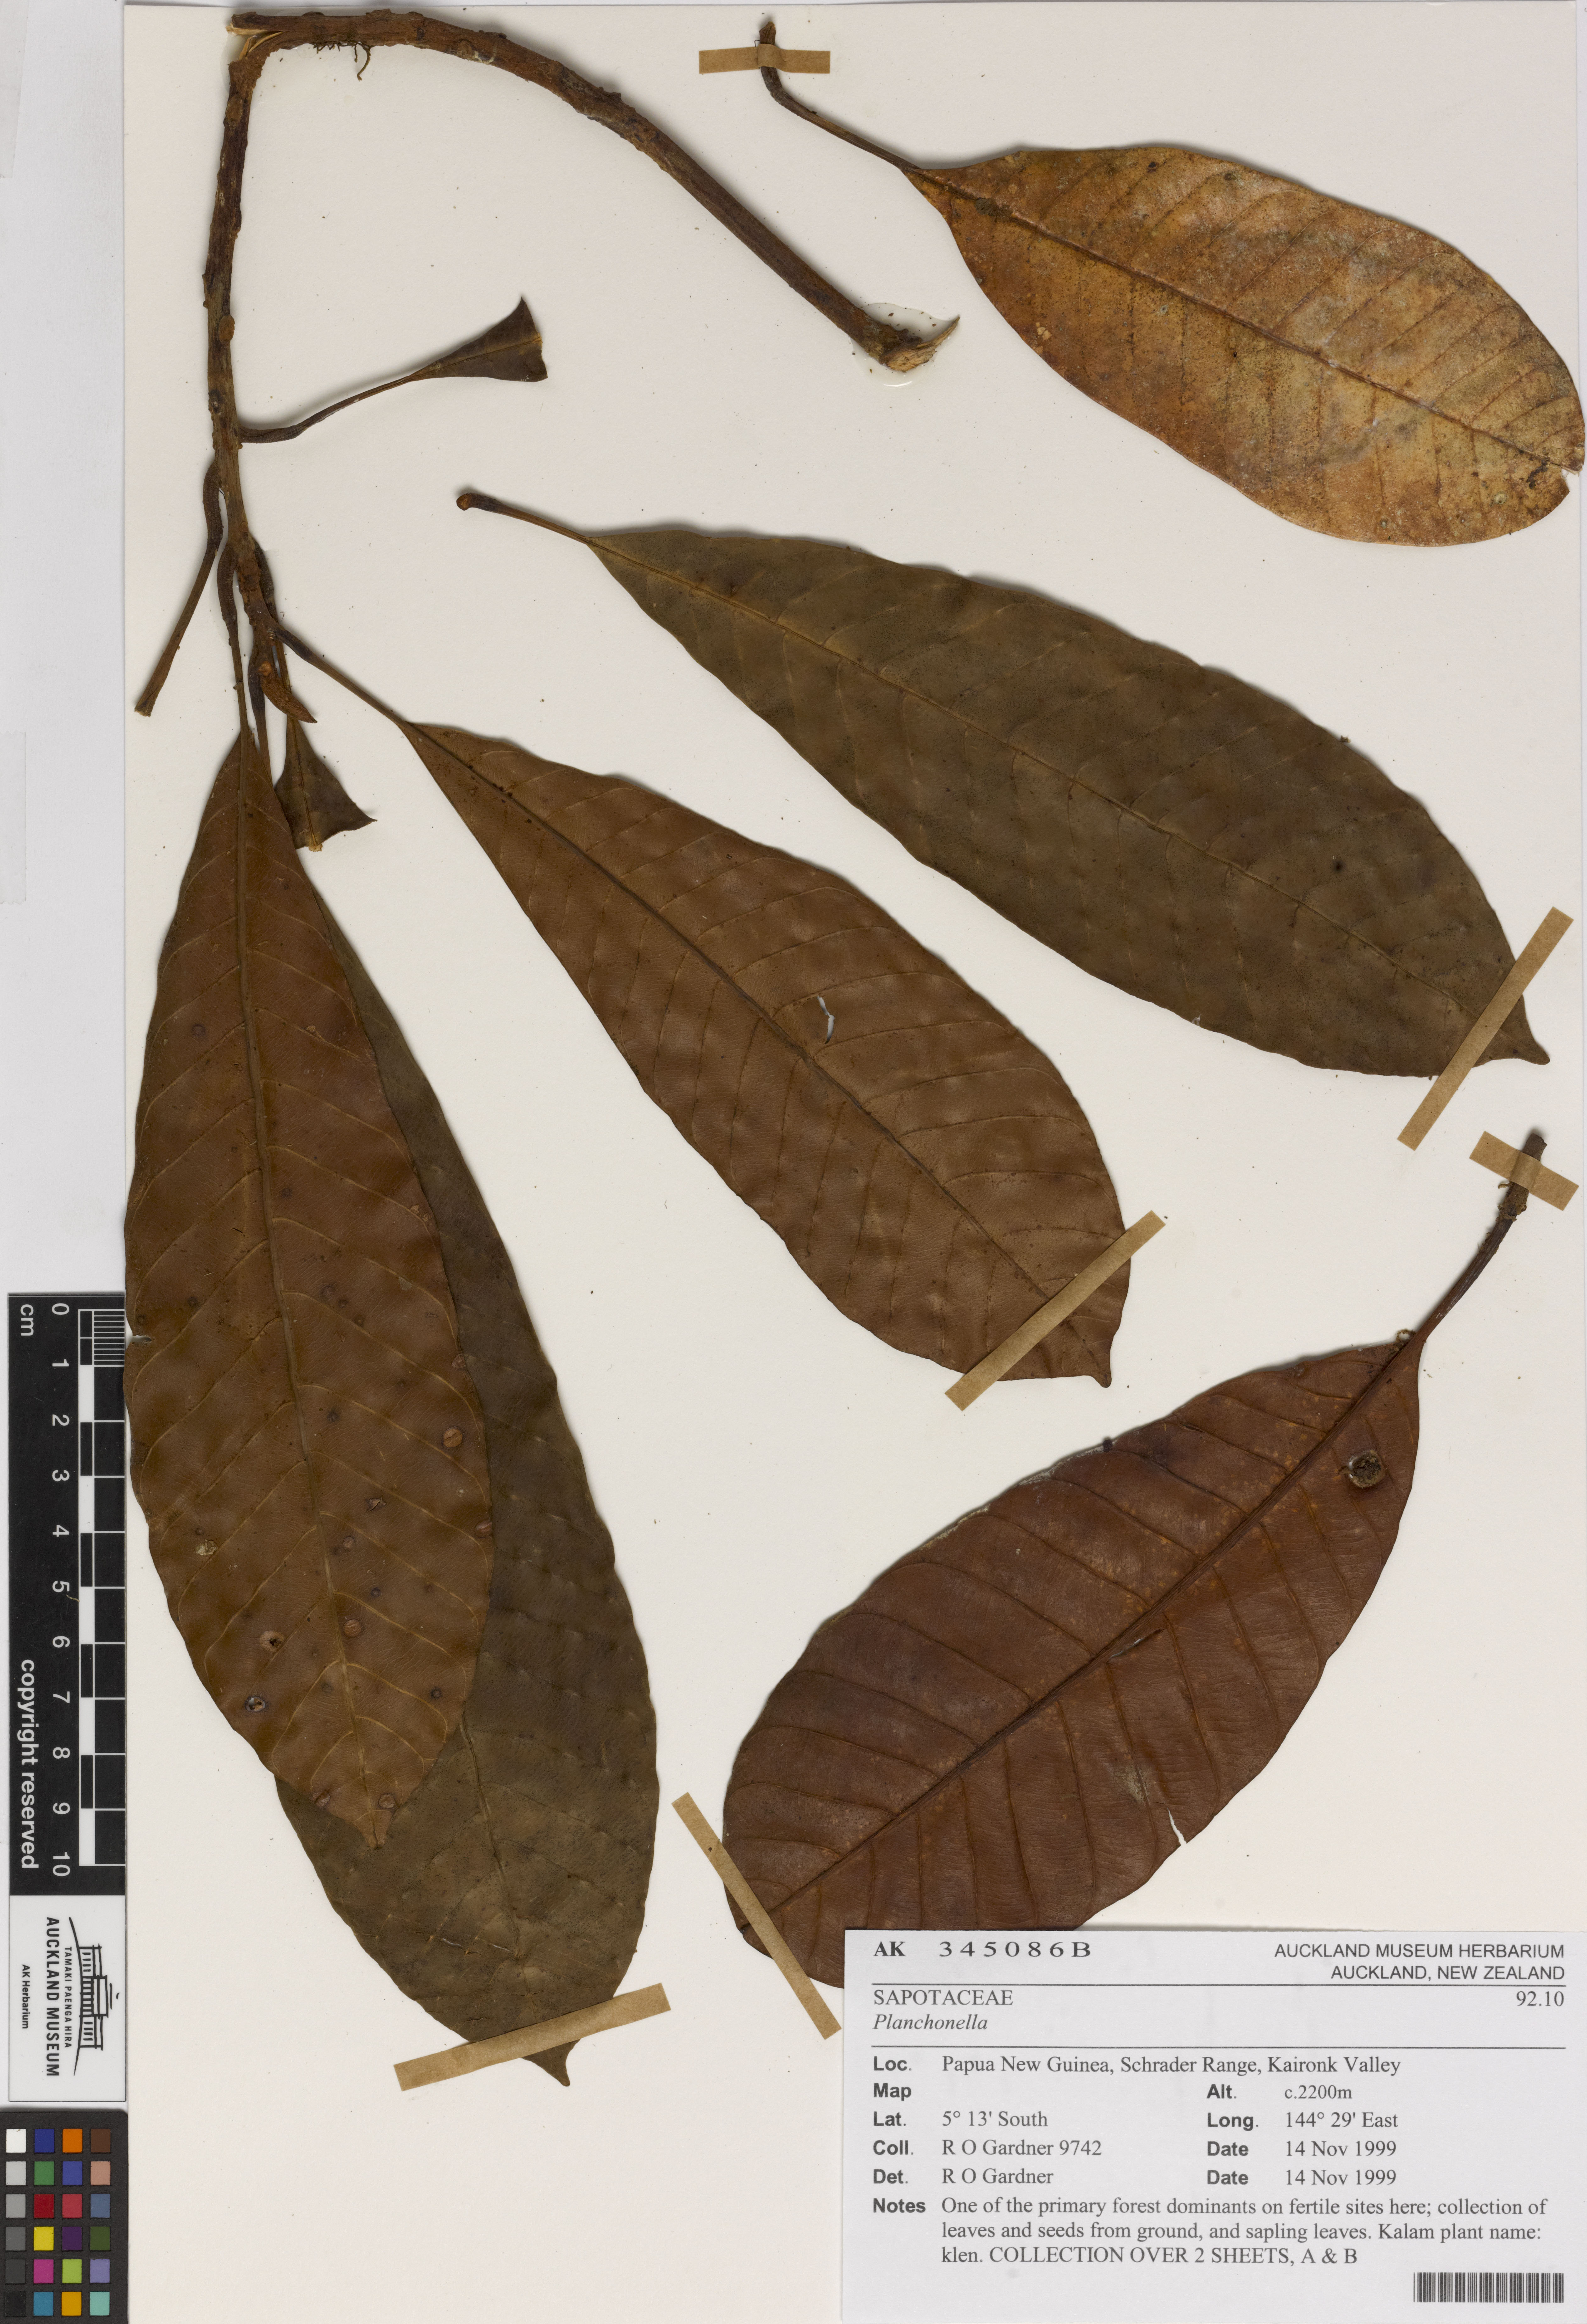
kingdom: Plantae
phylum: Tracheophyta
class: Magnoliopsida
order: Ericales
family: Sapotaceae
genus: Planchonella
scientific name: Planchonella
